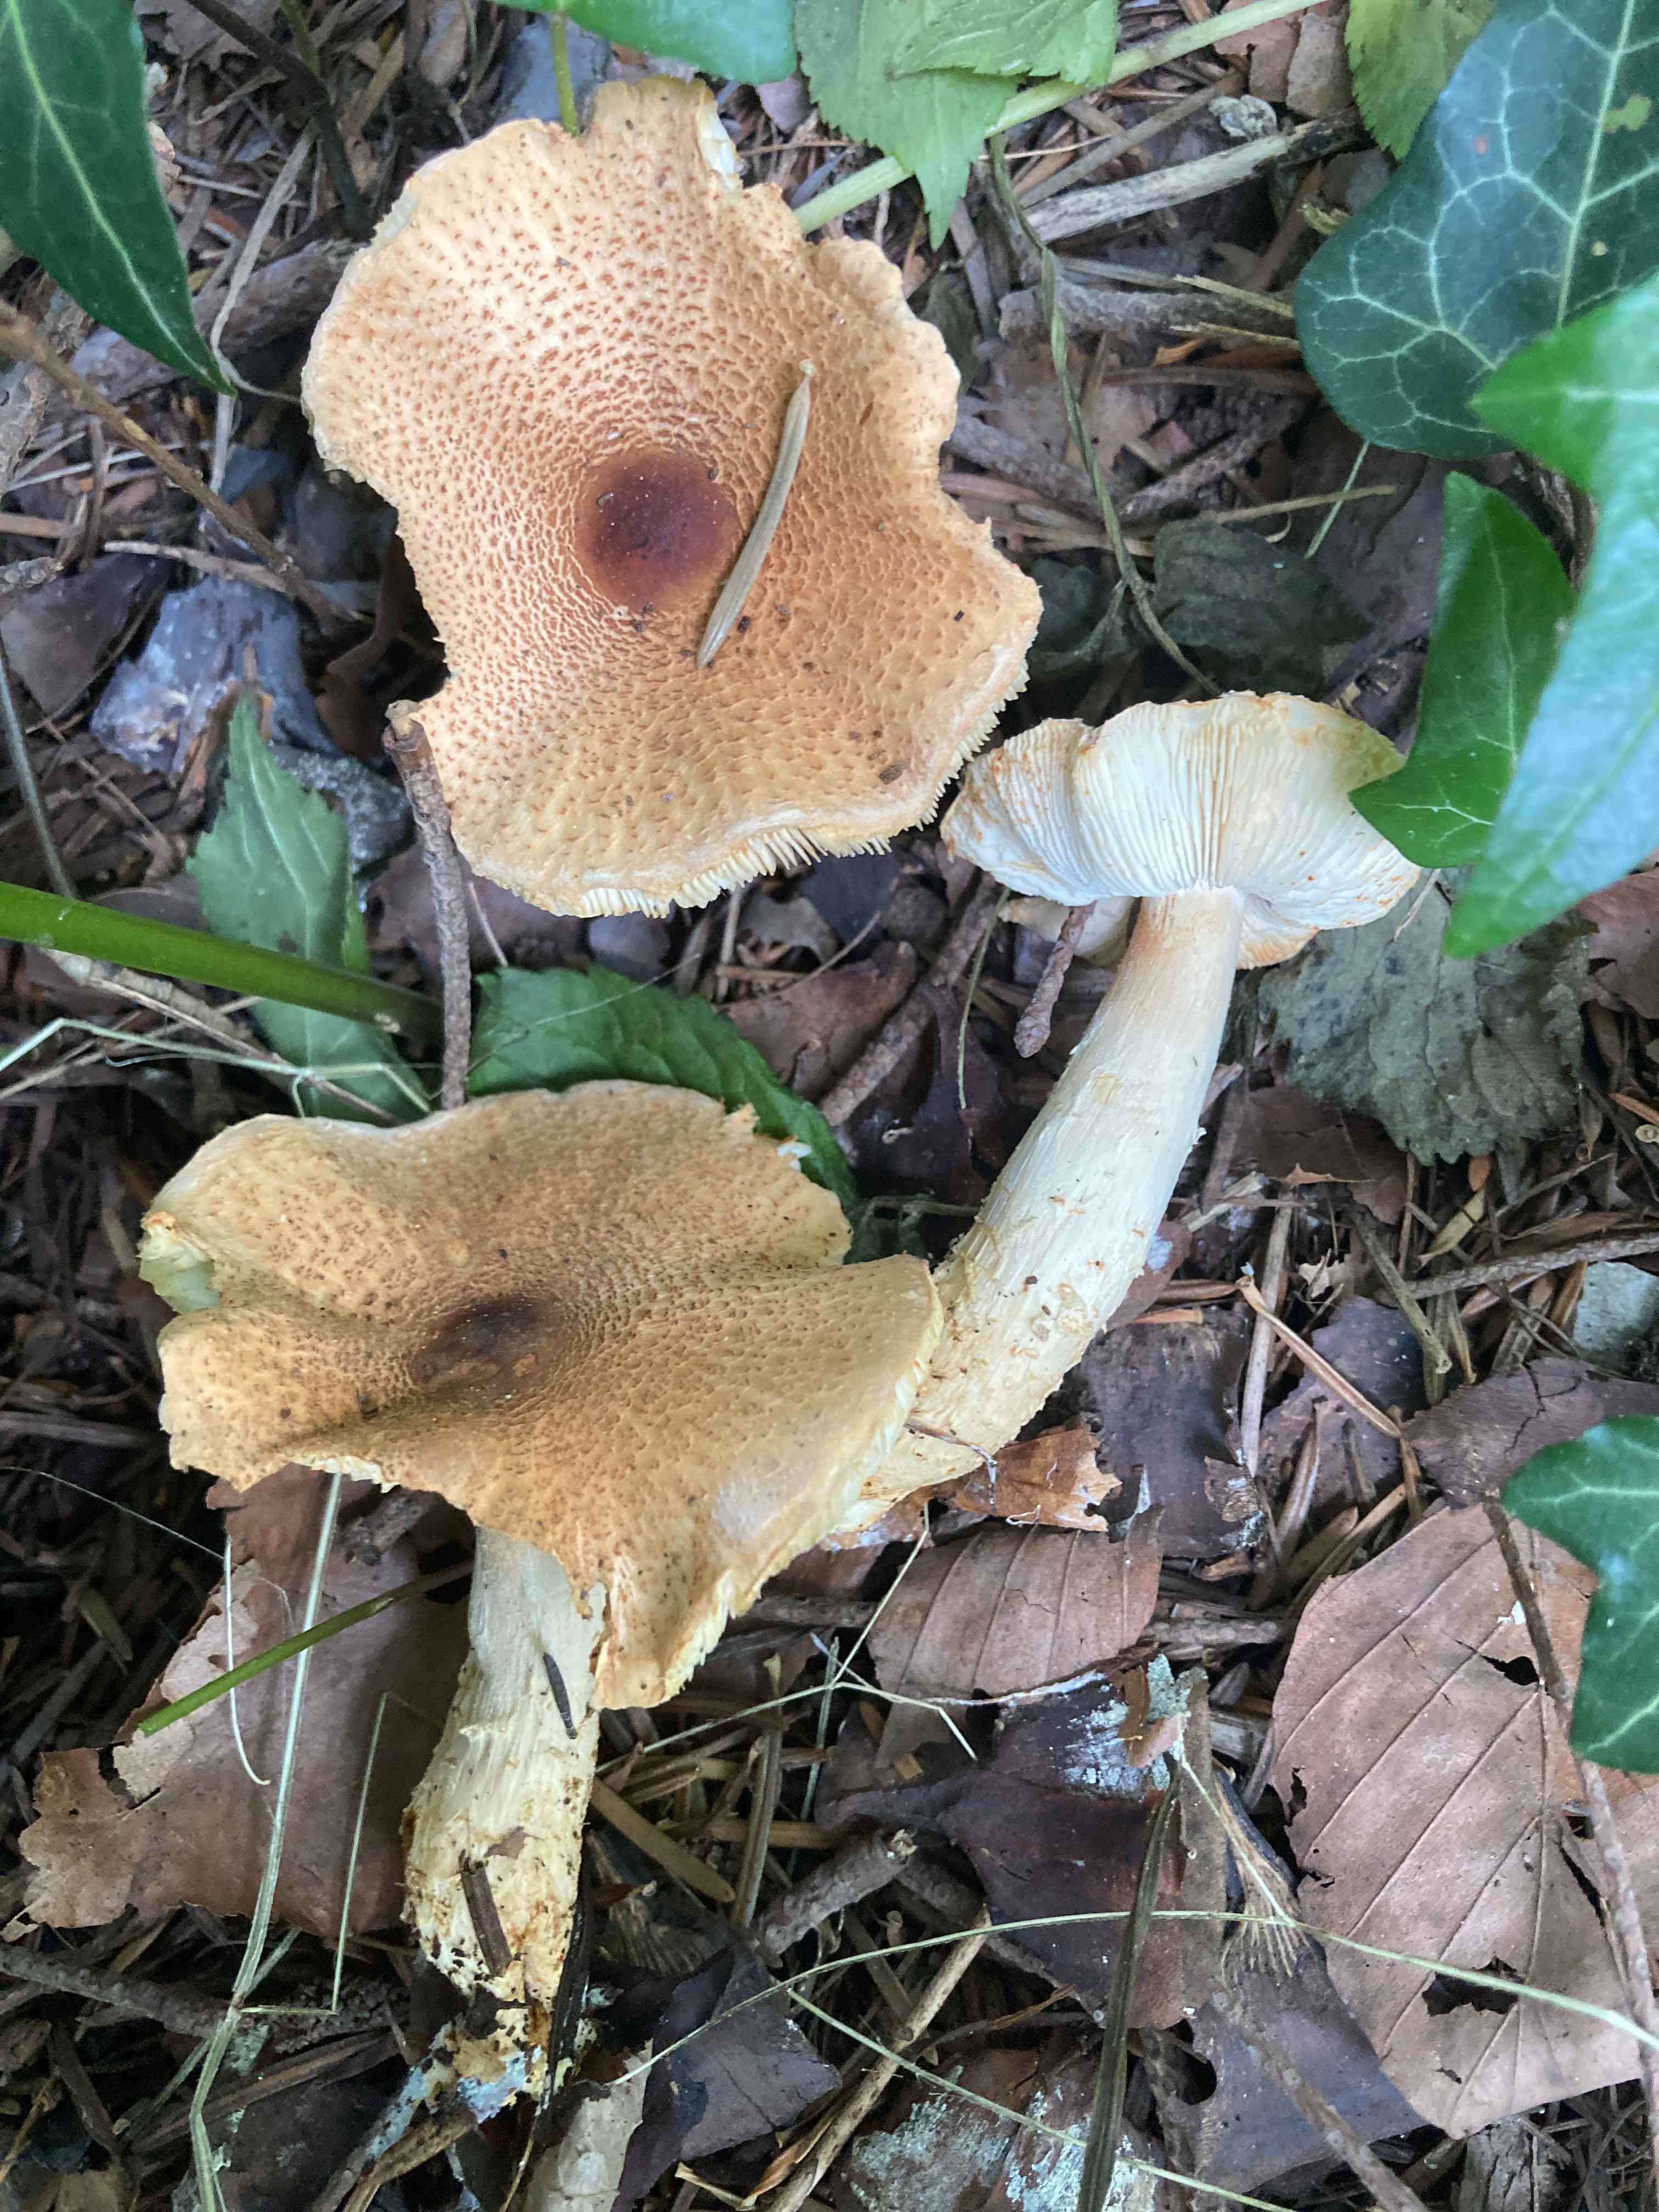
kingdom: Fungi
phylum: Basidiomycota
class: Agaricomycetes
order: Agaricales
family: Agaricaceae
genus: Lepiota
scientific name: Lepiota ochraceofulva
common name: sødtduftende parasolhat
